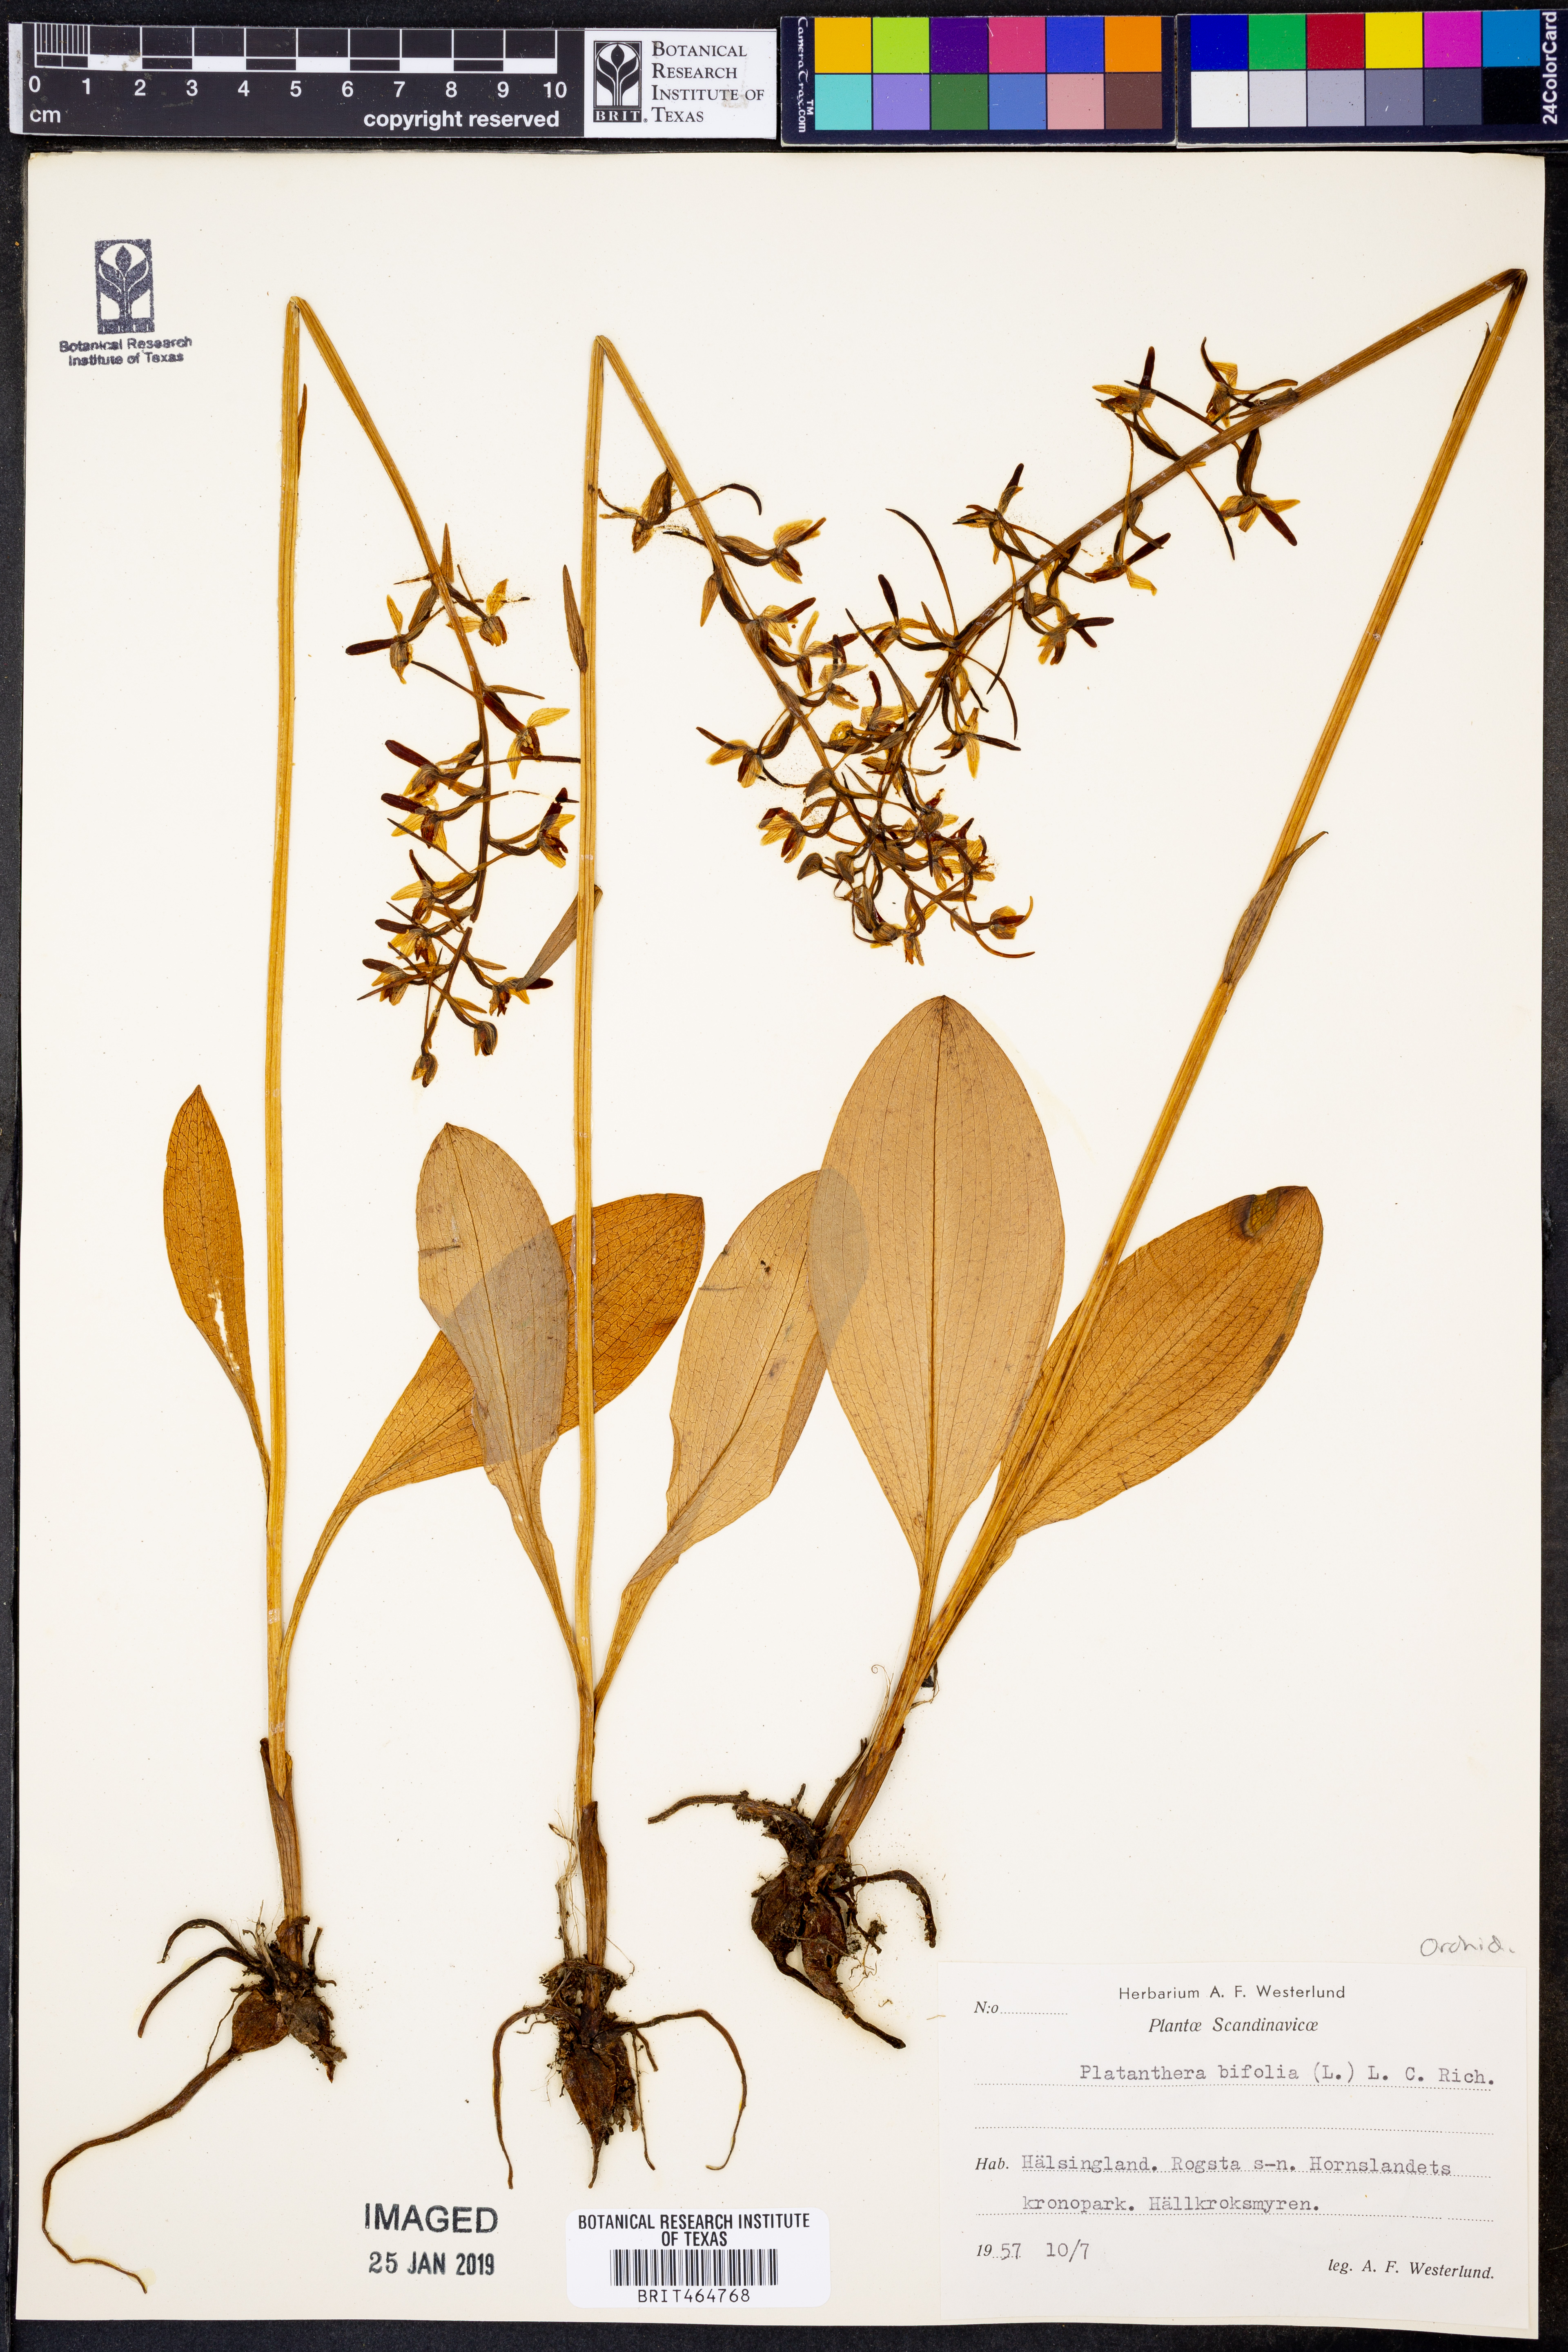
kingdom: Plantae
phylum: Tracheophyta
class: Liliopsida
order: Asparagales
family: Orchidaceae
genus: Platanthera
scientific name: Platanthera bifolia
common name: Lesser butterfly-orchid
